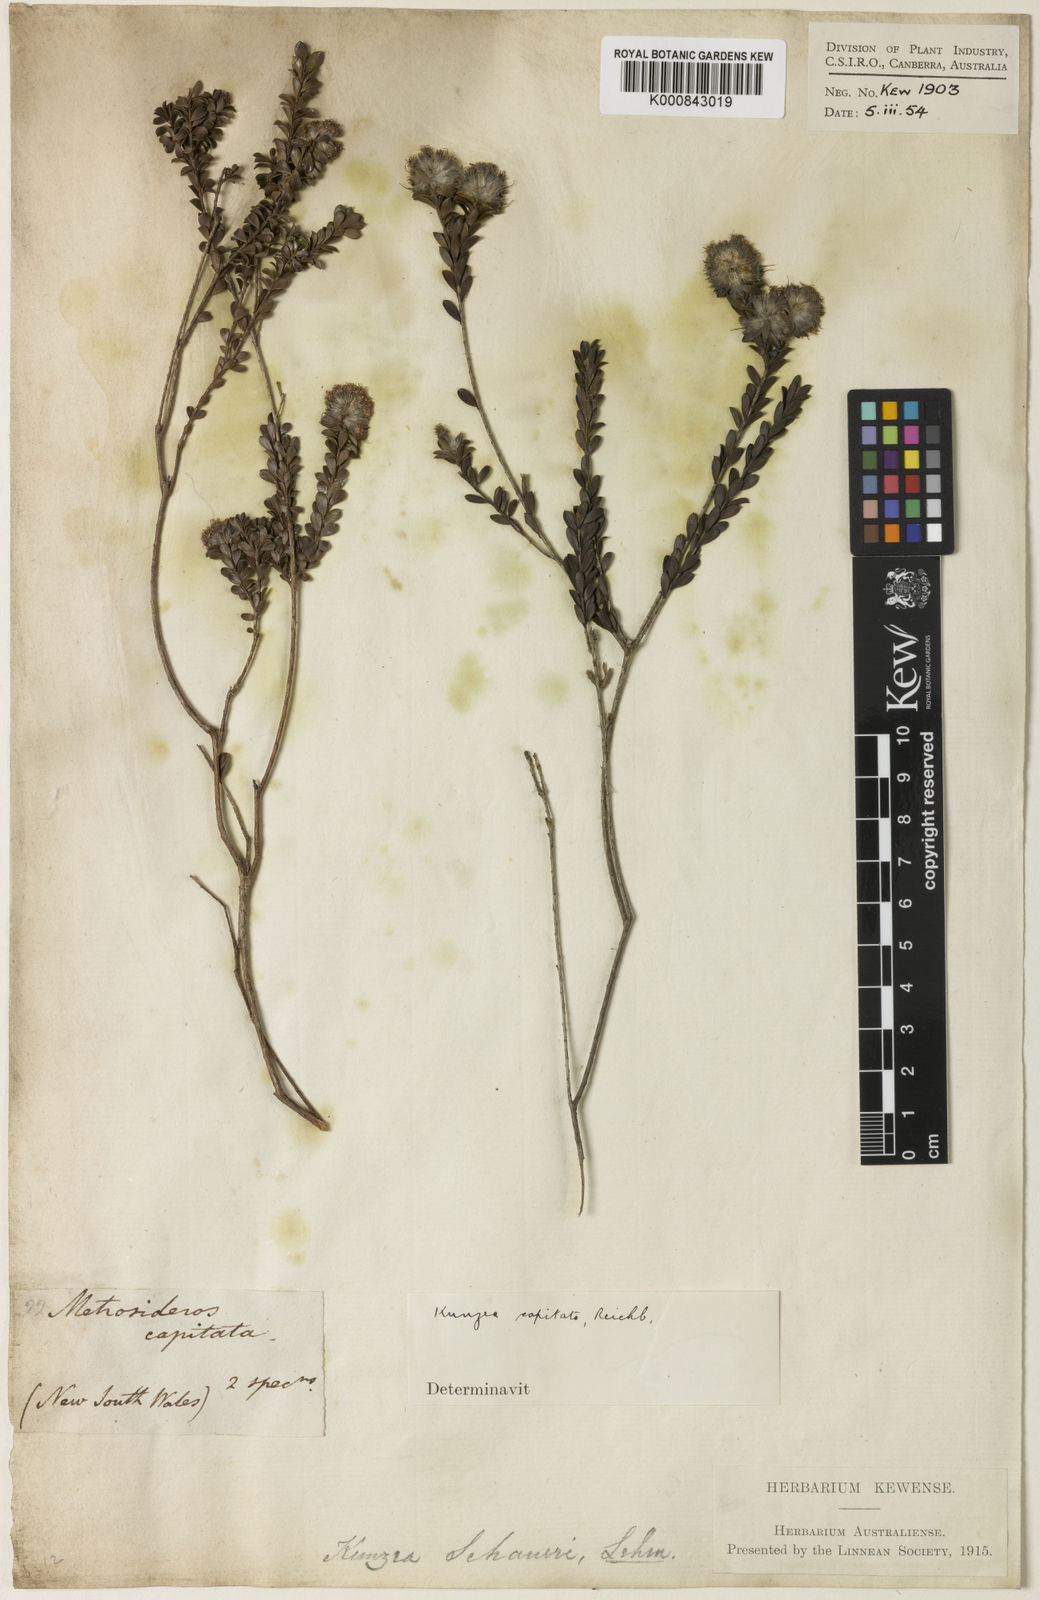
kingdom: Plantae
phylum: Tracheophyta
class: Magnoliopsida
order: Myrtales
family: Myrtaceae
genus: Kunzea
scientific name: Kunzea
